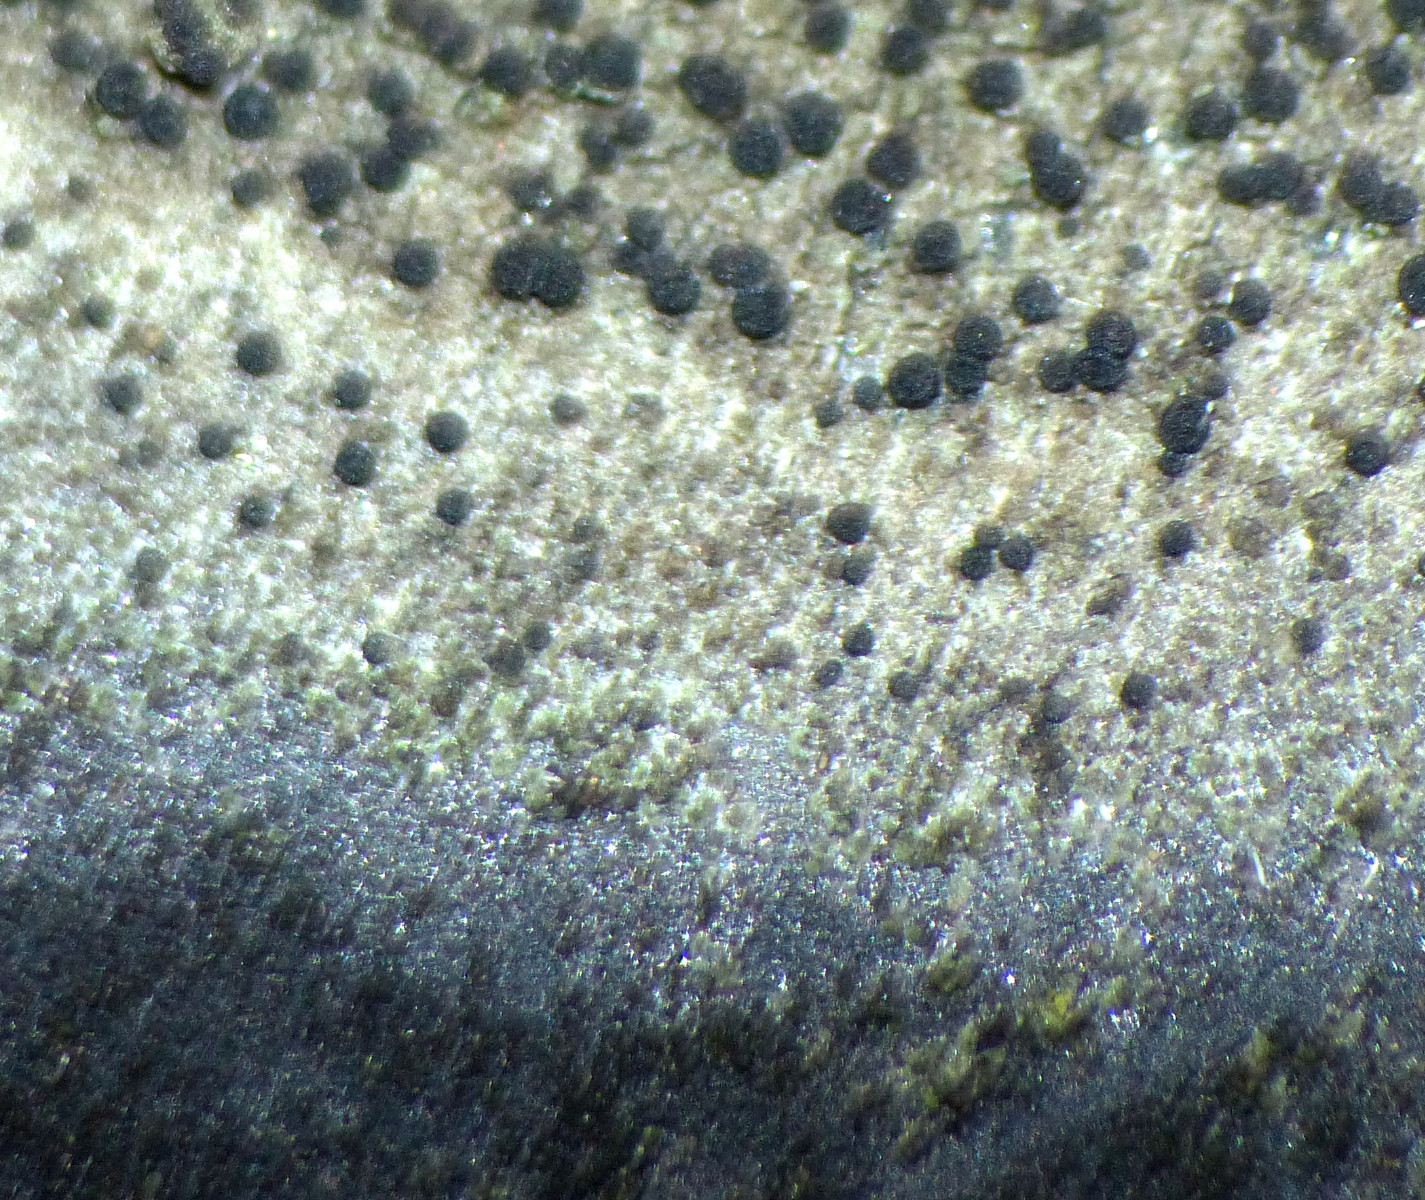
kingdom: Fungi
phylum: Ascomycota
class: Lecanoromycetes
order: Lecideales
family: Lecideaceae
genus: Lecidea
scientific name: Lecidea
